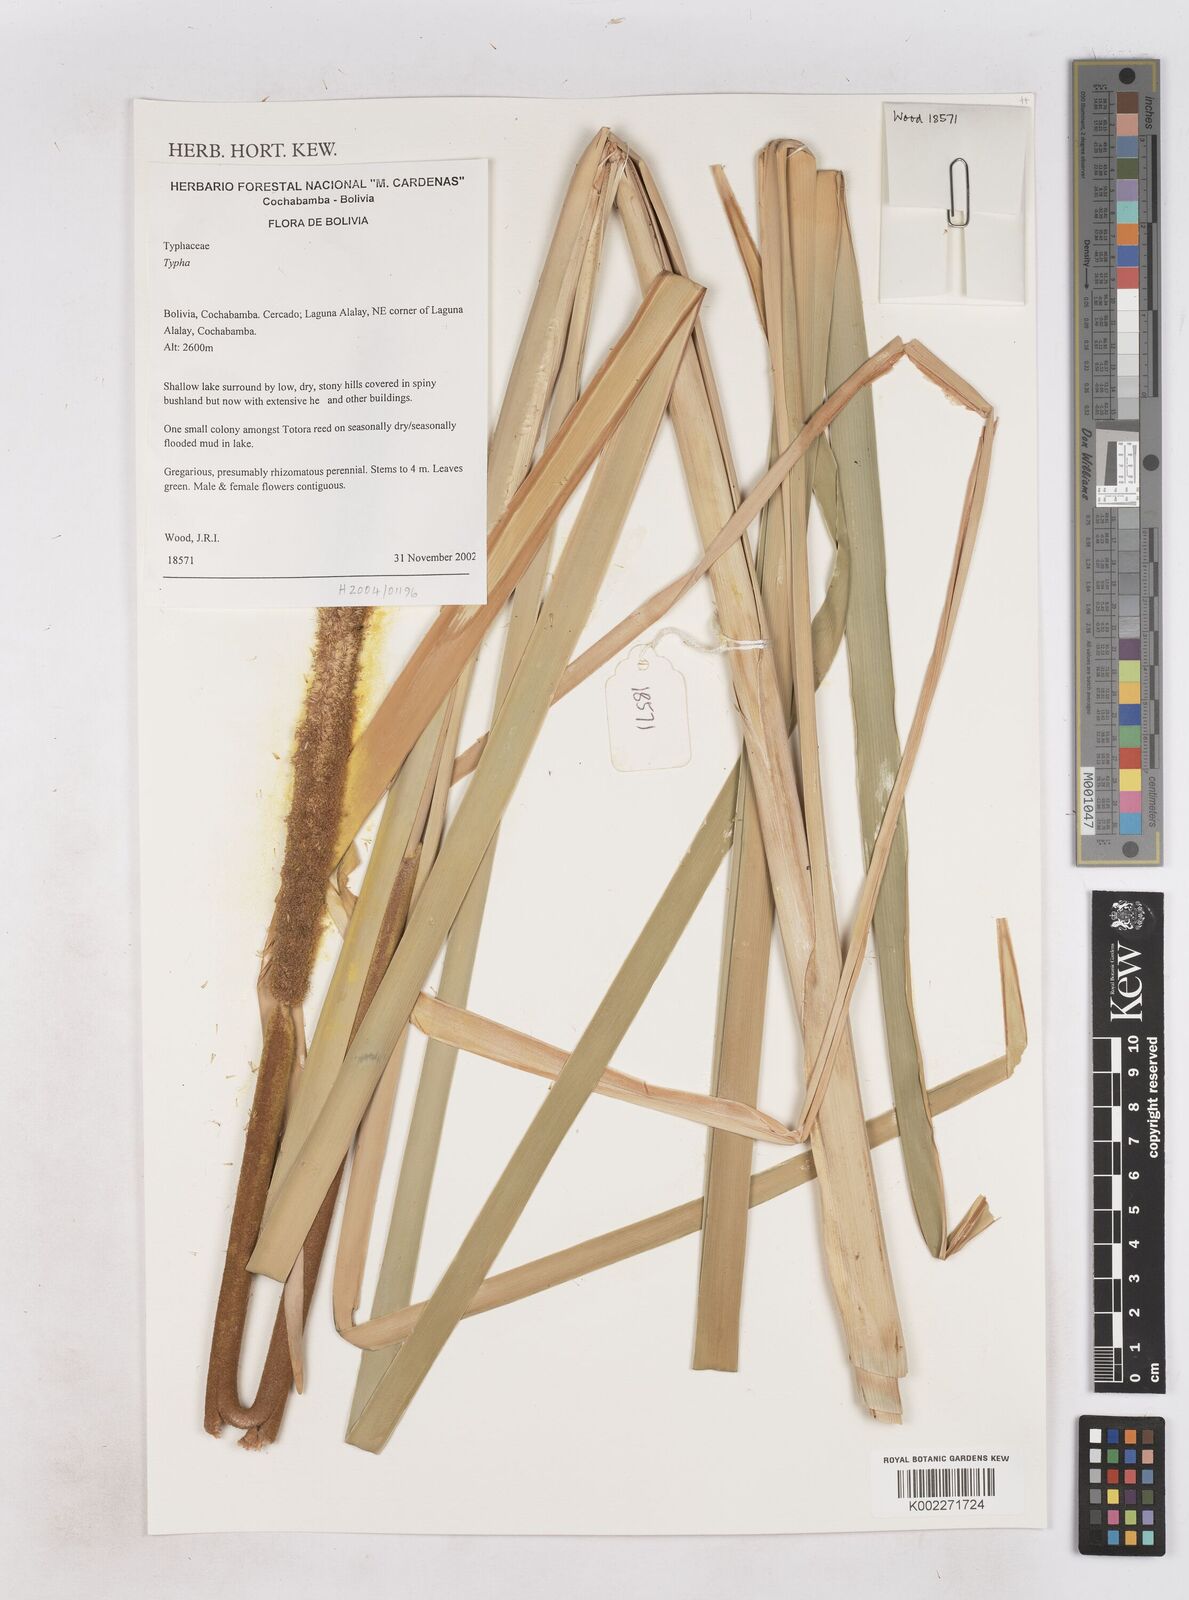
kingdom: Plantae
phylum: Tracheophyta
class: Liliopsida
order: Poales
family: Typhaceae
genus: Typha
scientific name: Typha
